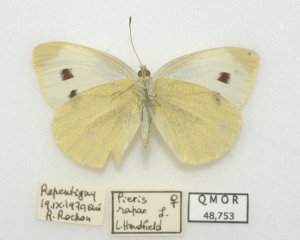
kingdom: Animalia
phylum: Arthropoda
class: Insecta
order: Lepidoptera
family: Pieridae
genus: Pieris
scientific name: Pieris rapae
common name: Cabbage White
